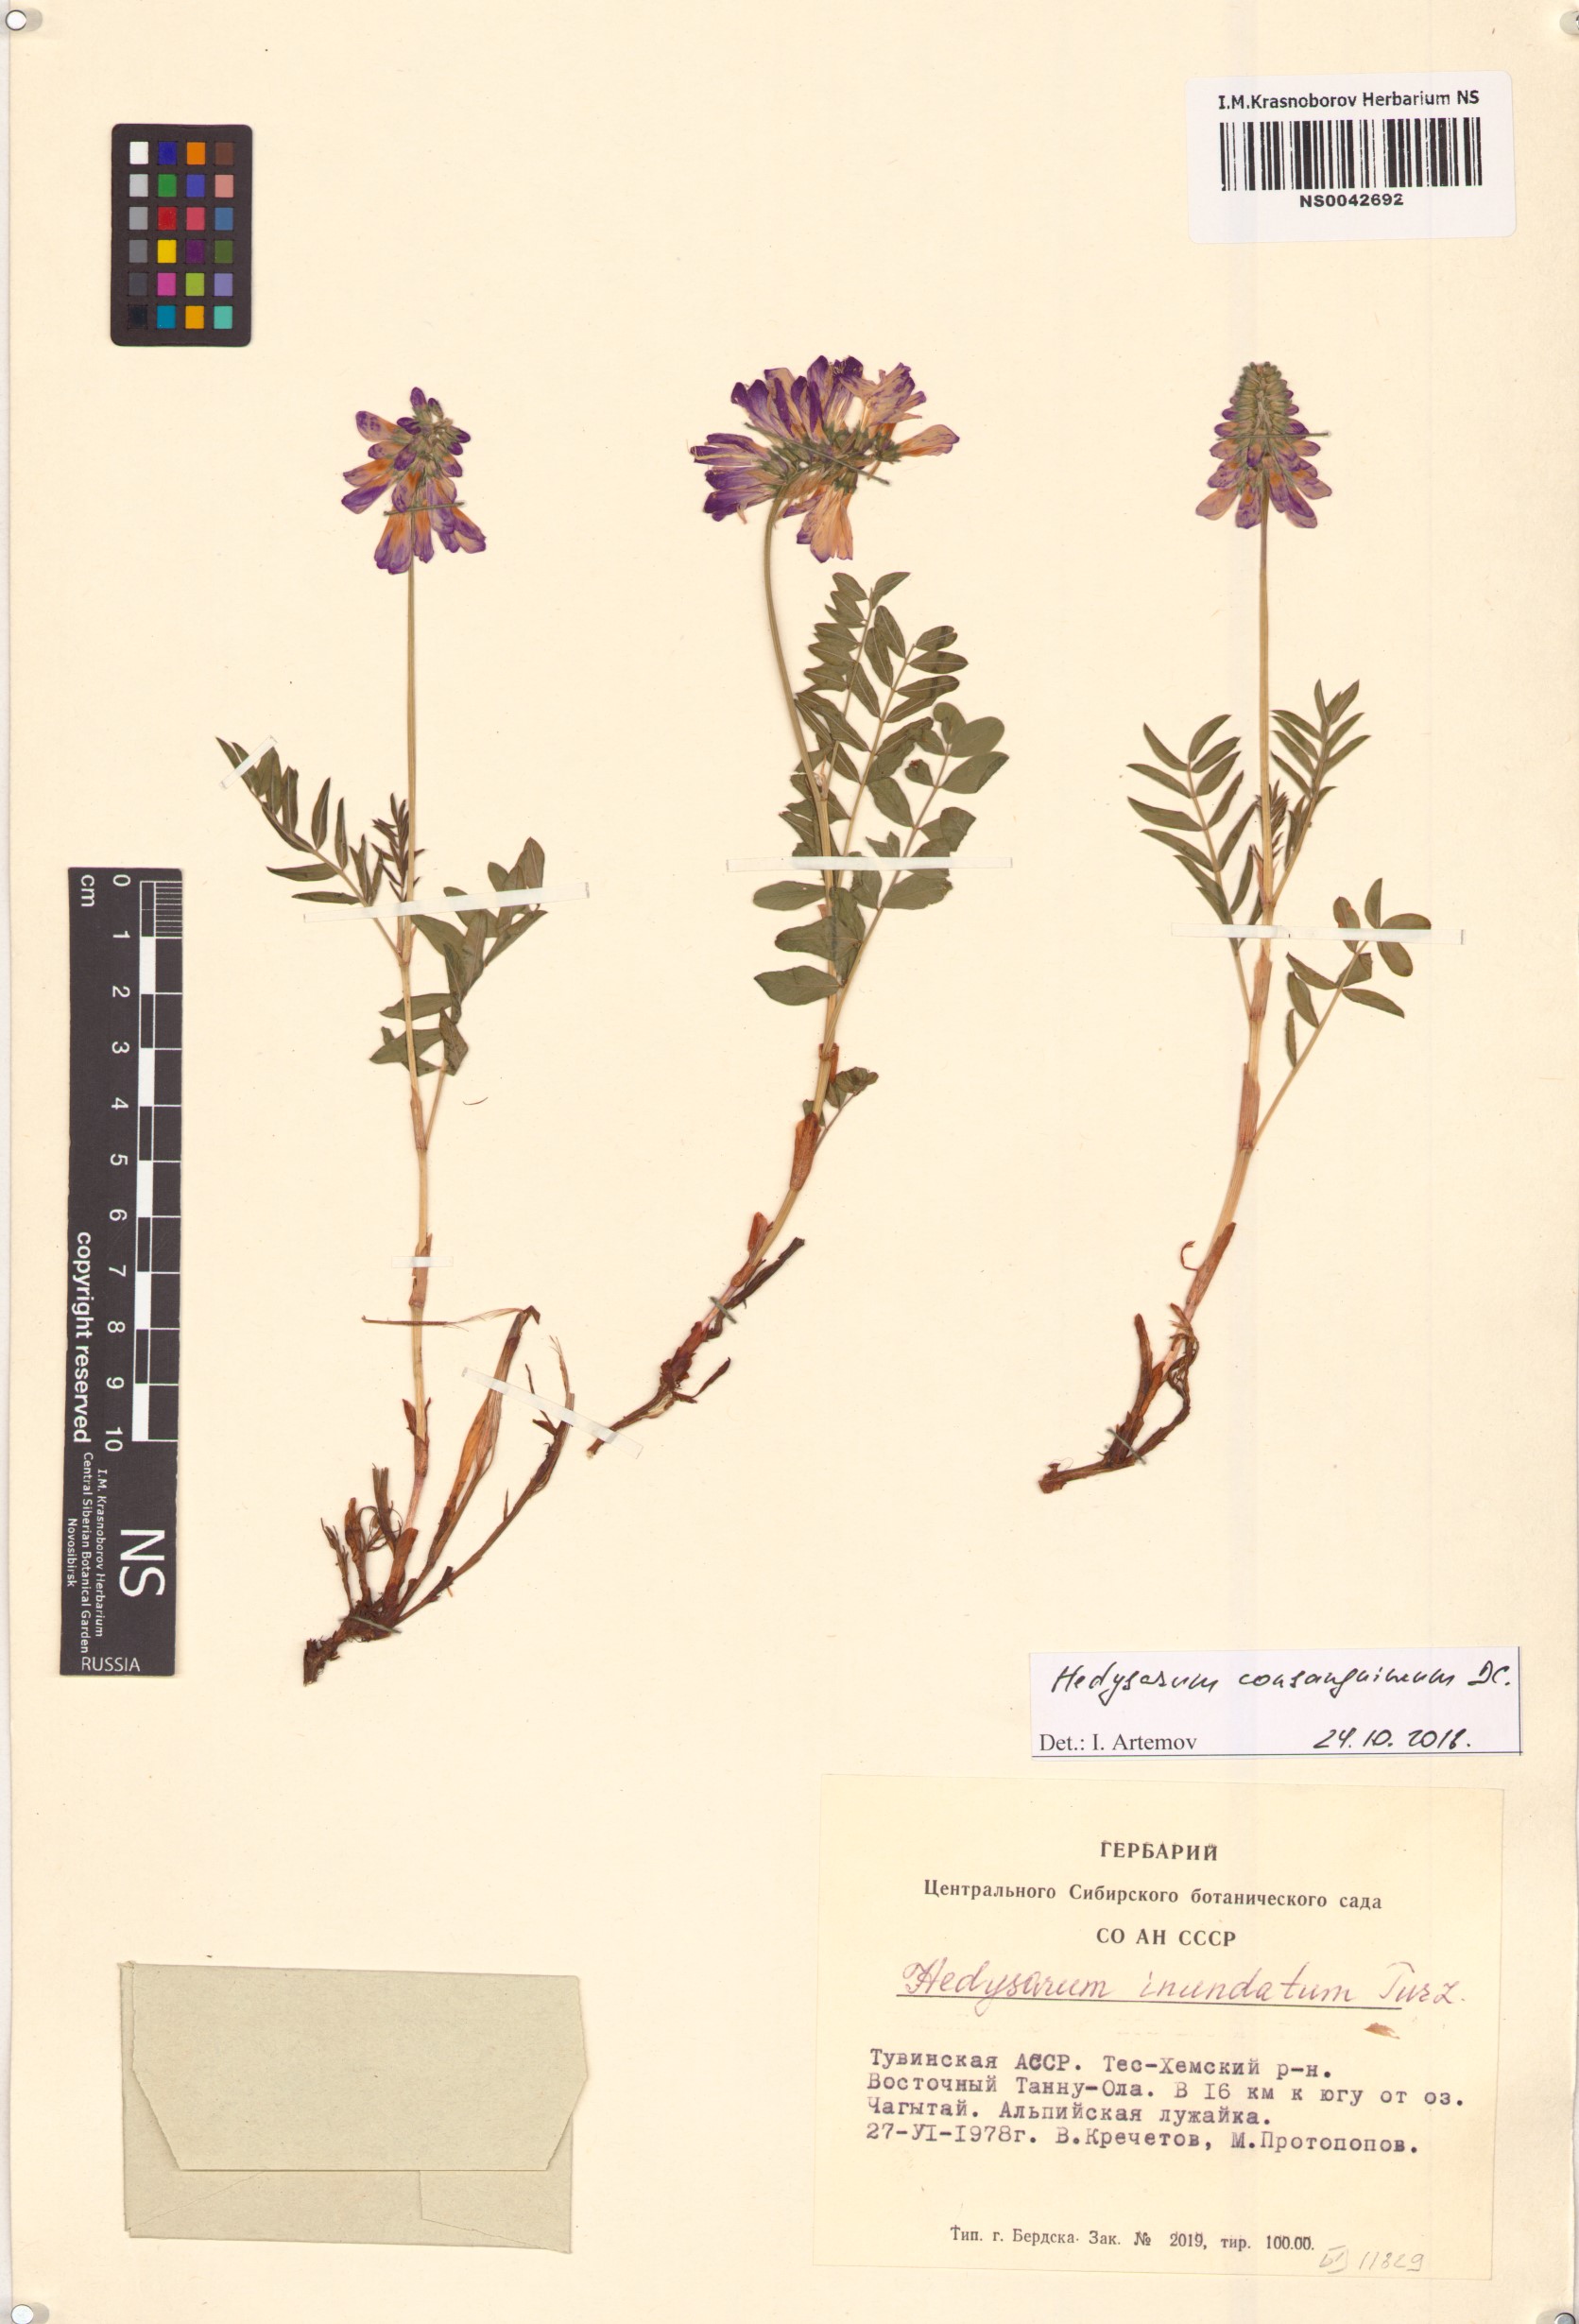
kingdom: Plantae
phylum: Tracheophyta
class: Magnoliopsida
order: Fabales
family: Fabaceae
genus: Hedysarum
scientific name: Hedysarum consanguineum
